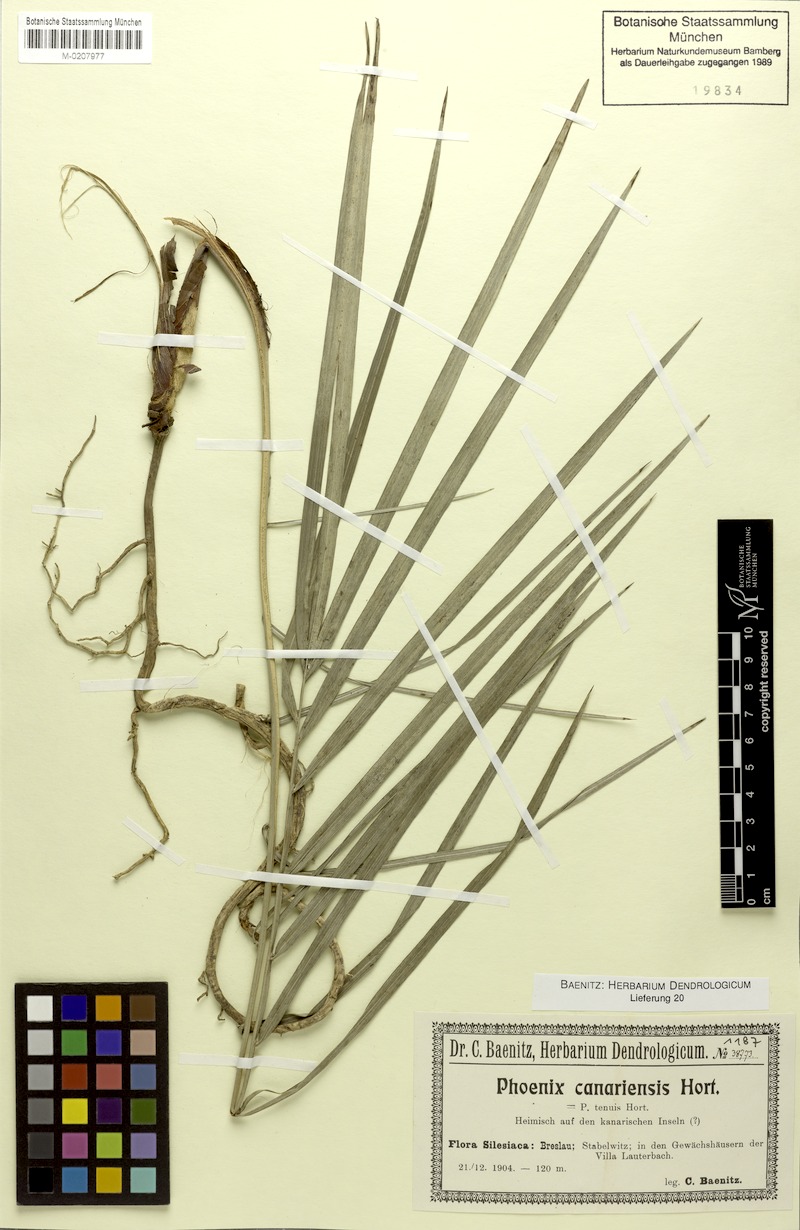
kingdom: Plantae
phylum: Tracheophyta
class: Liliopsida
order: Arecales
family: Arecaceae
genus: Phoenix
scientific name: Phoenix canariensis
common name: Canary island date palm
